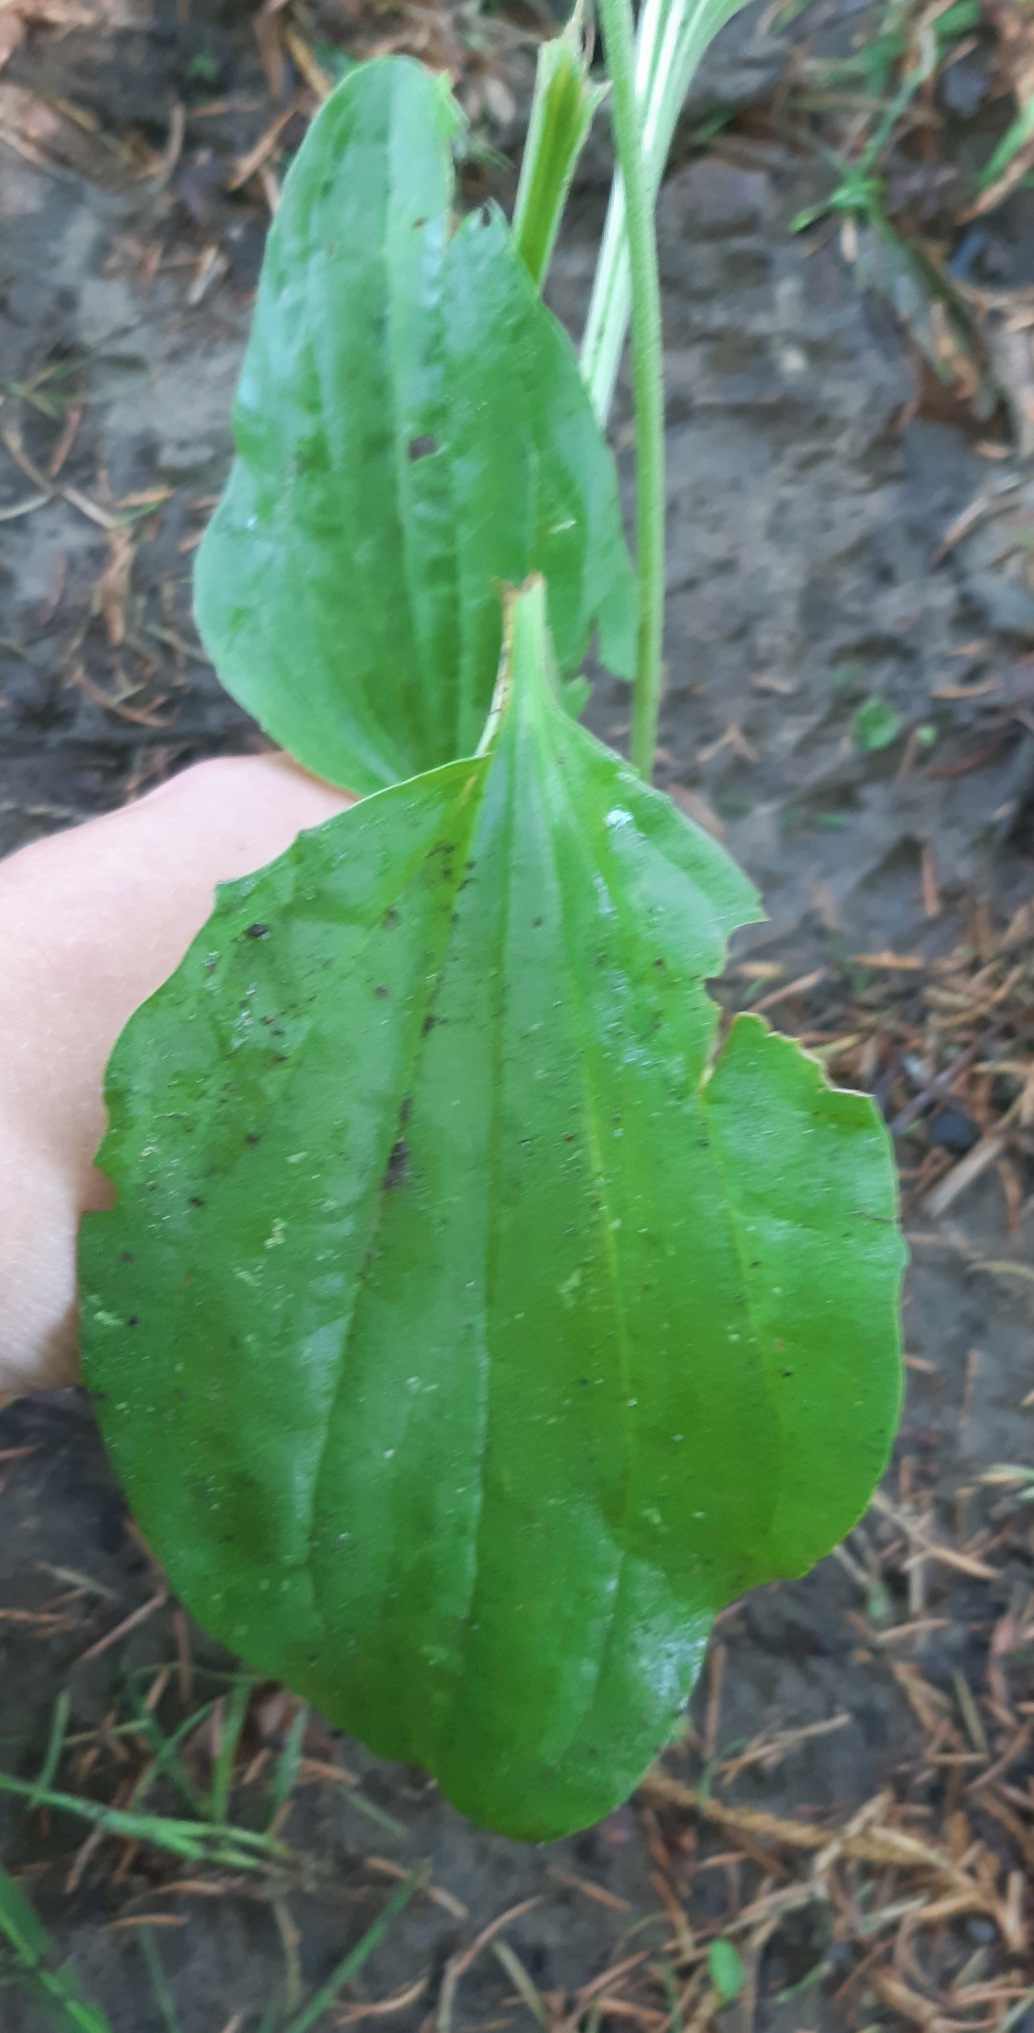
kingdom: Plantae
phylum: Tracheophyta
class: Magnoliopsida
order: Lamiales
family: Plantaginaceae
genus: Plantago
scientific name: Plantago major
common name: Glat vejbred
